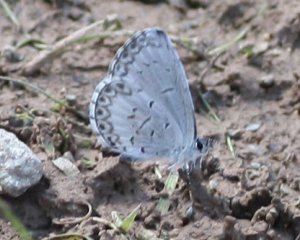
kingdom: Animalia
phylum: Arthropoda
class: Insecta
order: Lepidoptera
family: Lycaenidae
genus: Cyaniris
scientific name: Cyaniris neglecta
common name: Summer Azure
